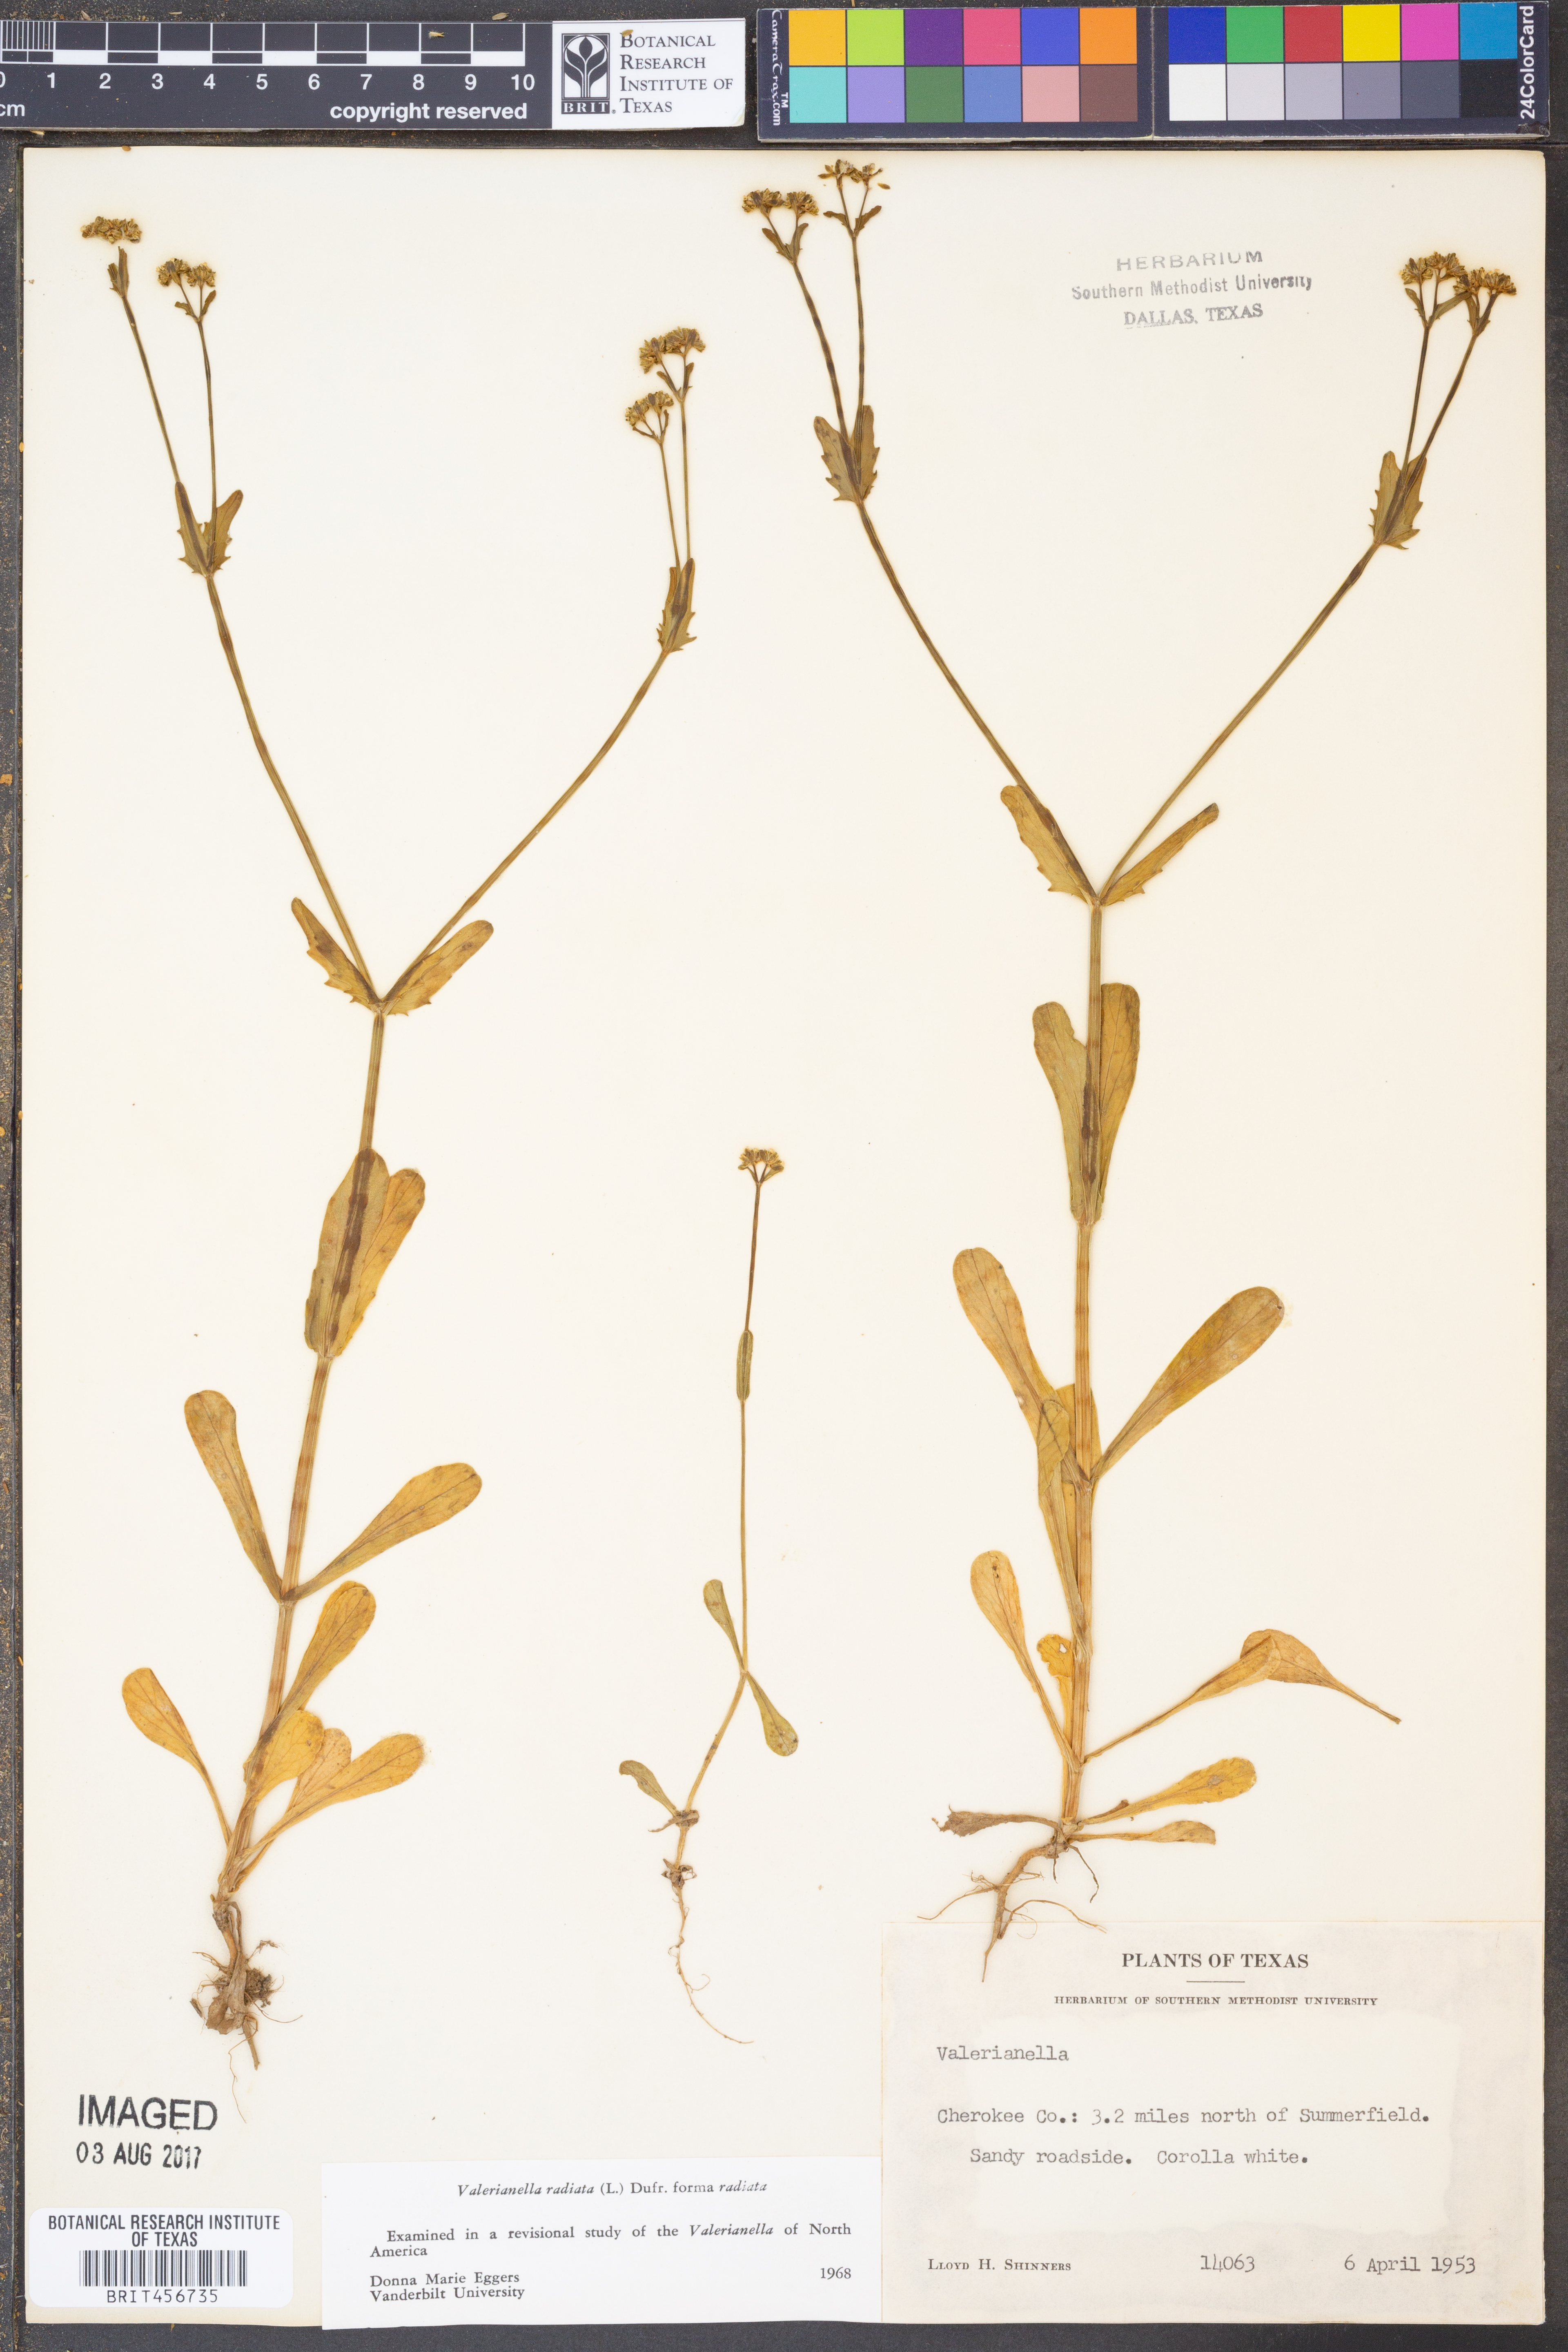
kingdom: Plantae
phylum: Tracheophyta
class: Magnoliopsida
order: Dipsacales
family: Caprifoliaceae
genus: Valerianella
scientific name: Valerianella radiata
